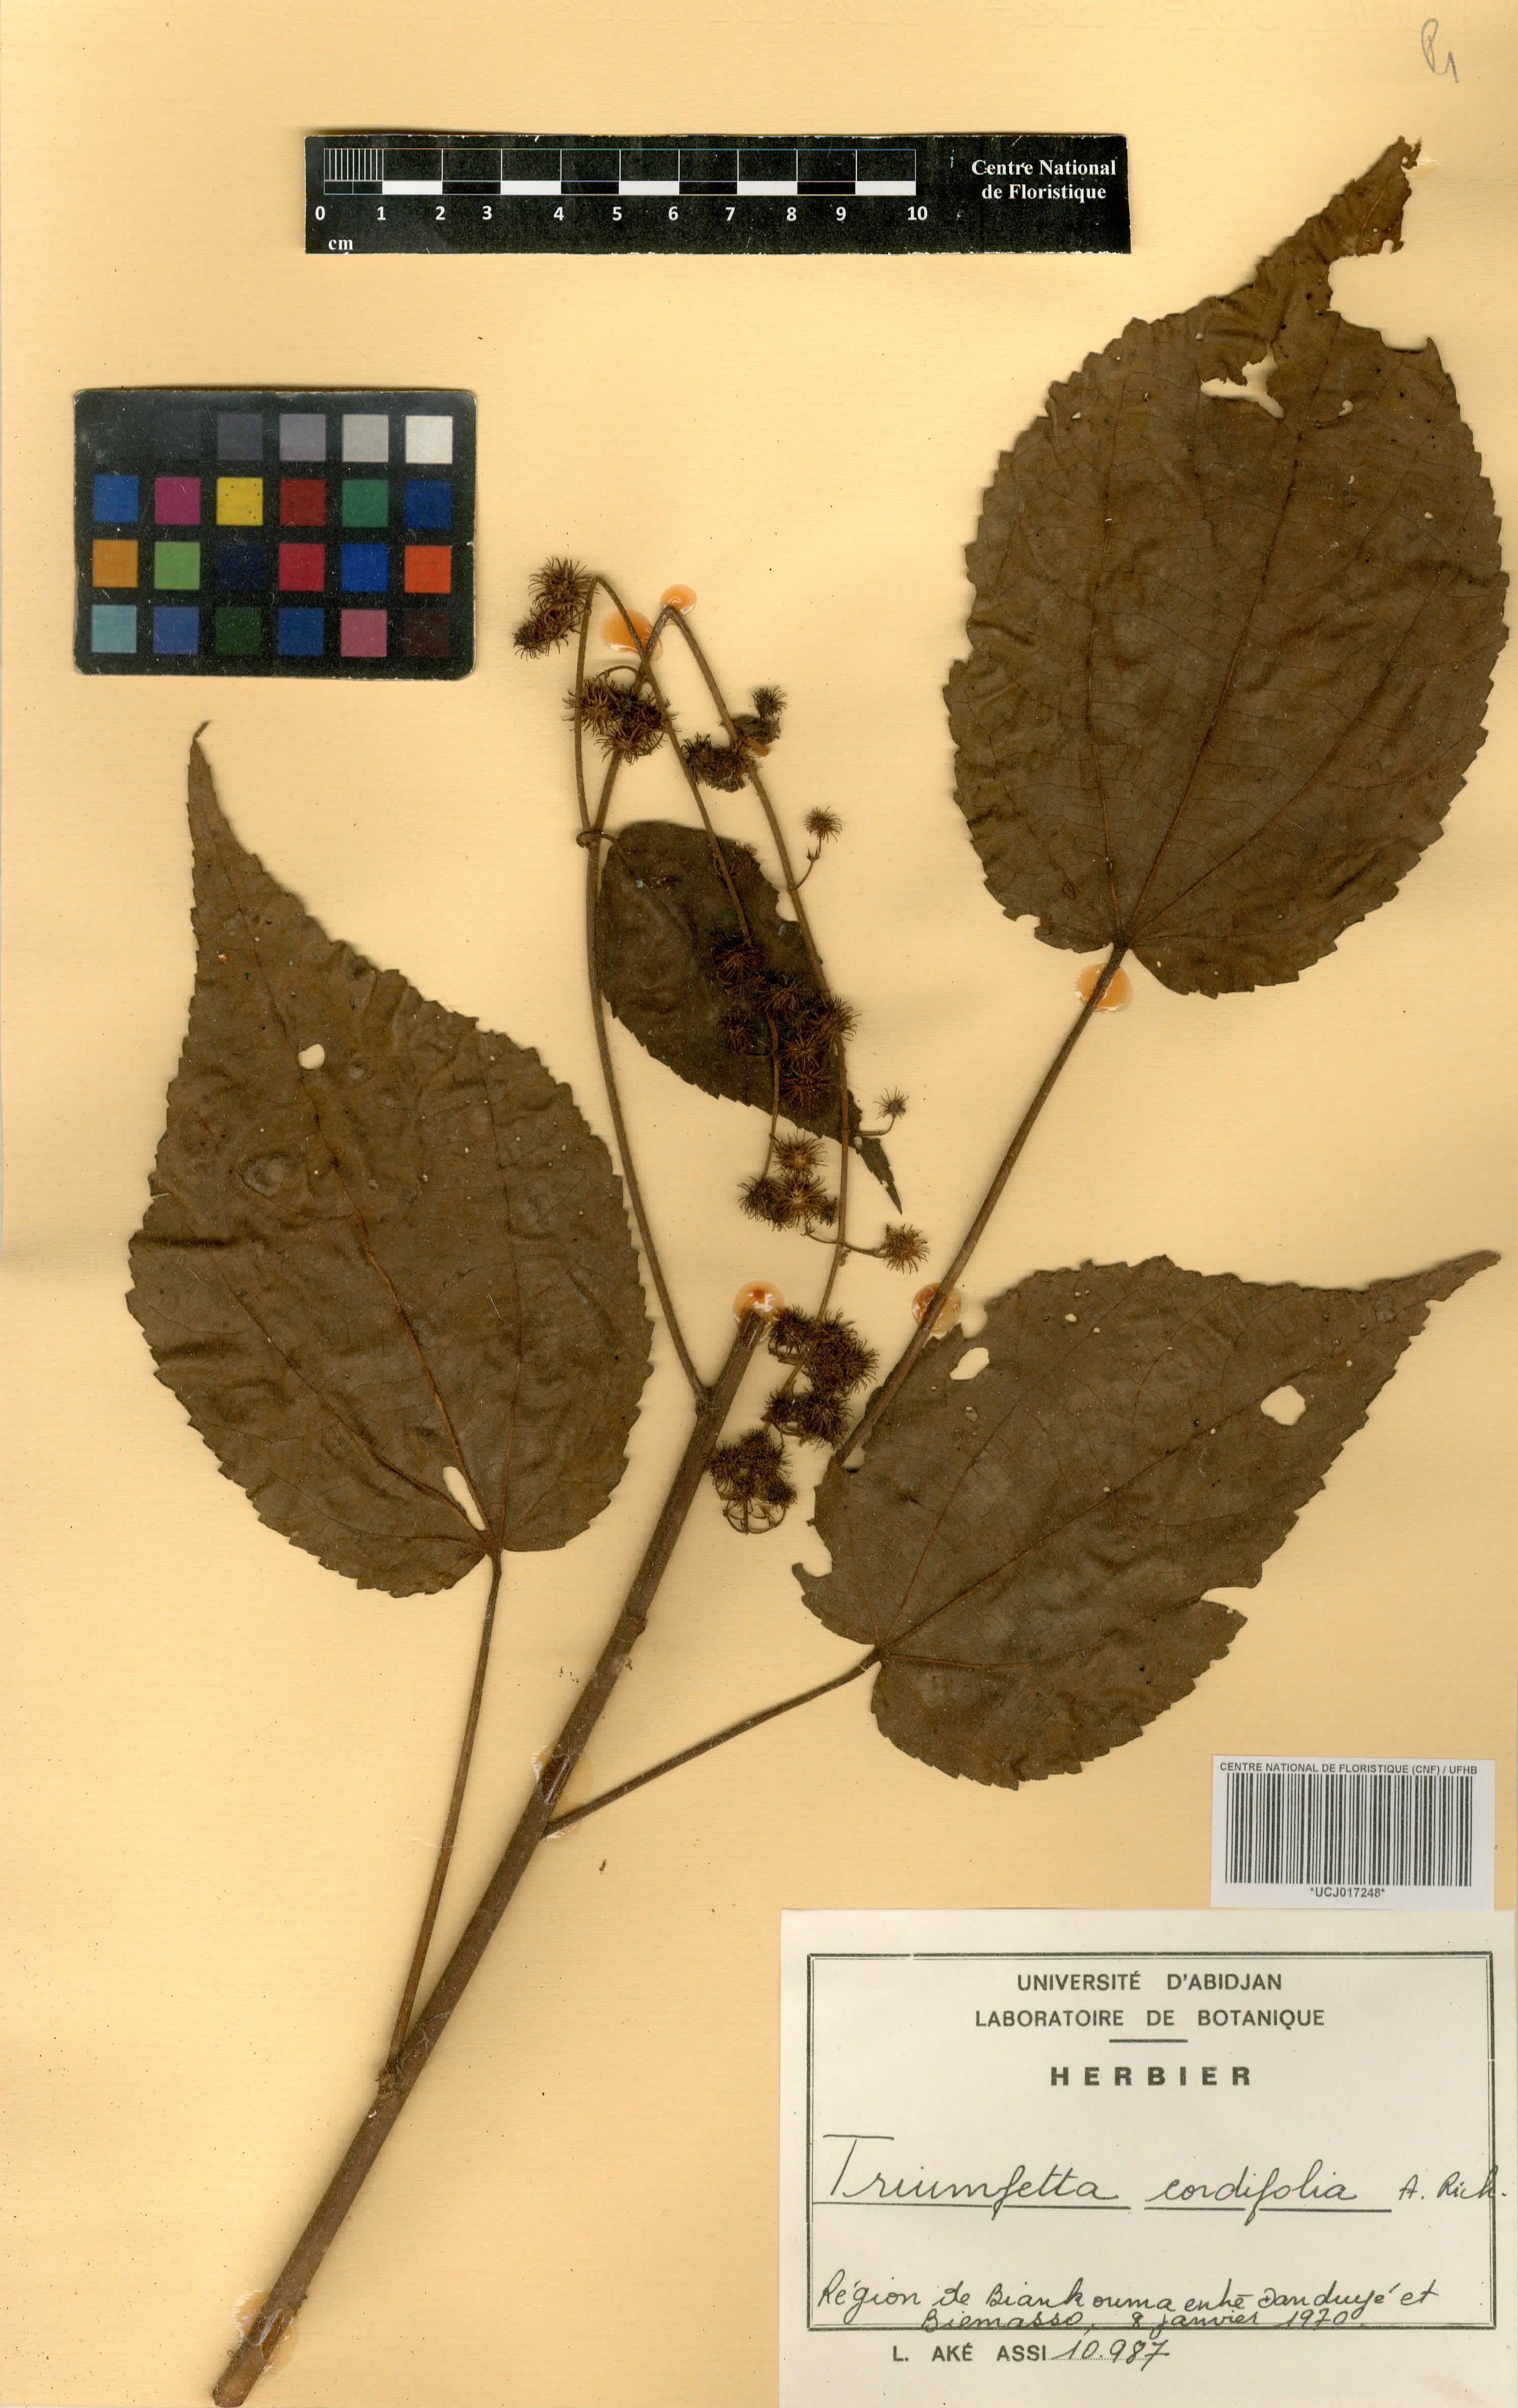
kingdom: Plantae
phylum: Tracheophyta
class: Magnoliopsida
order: Malvales
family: Malvaceae
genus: Triumfetta
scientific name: Triumfetta cordifolia
